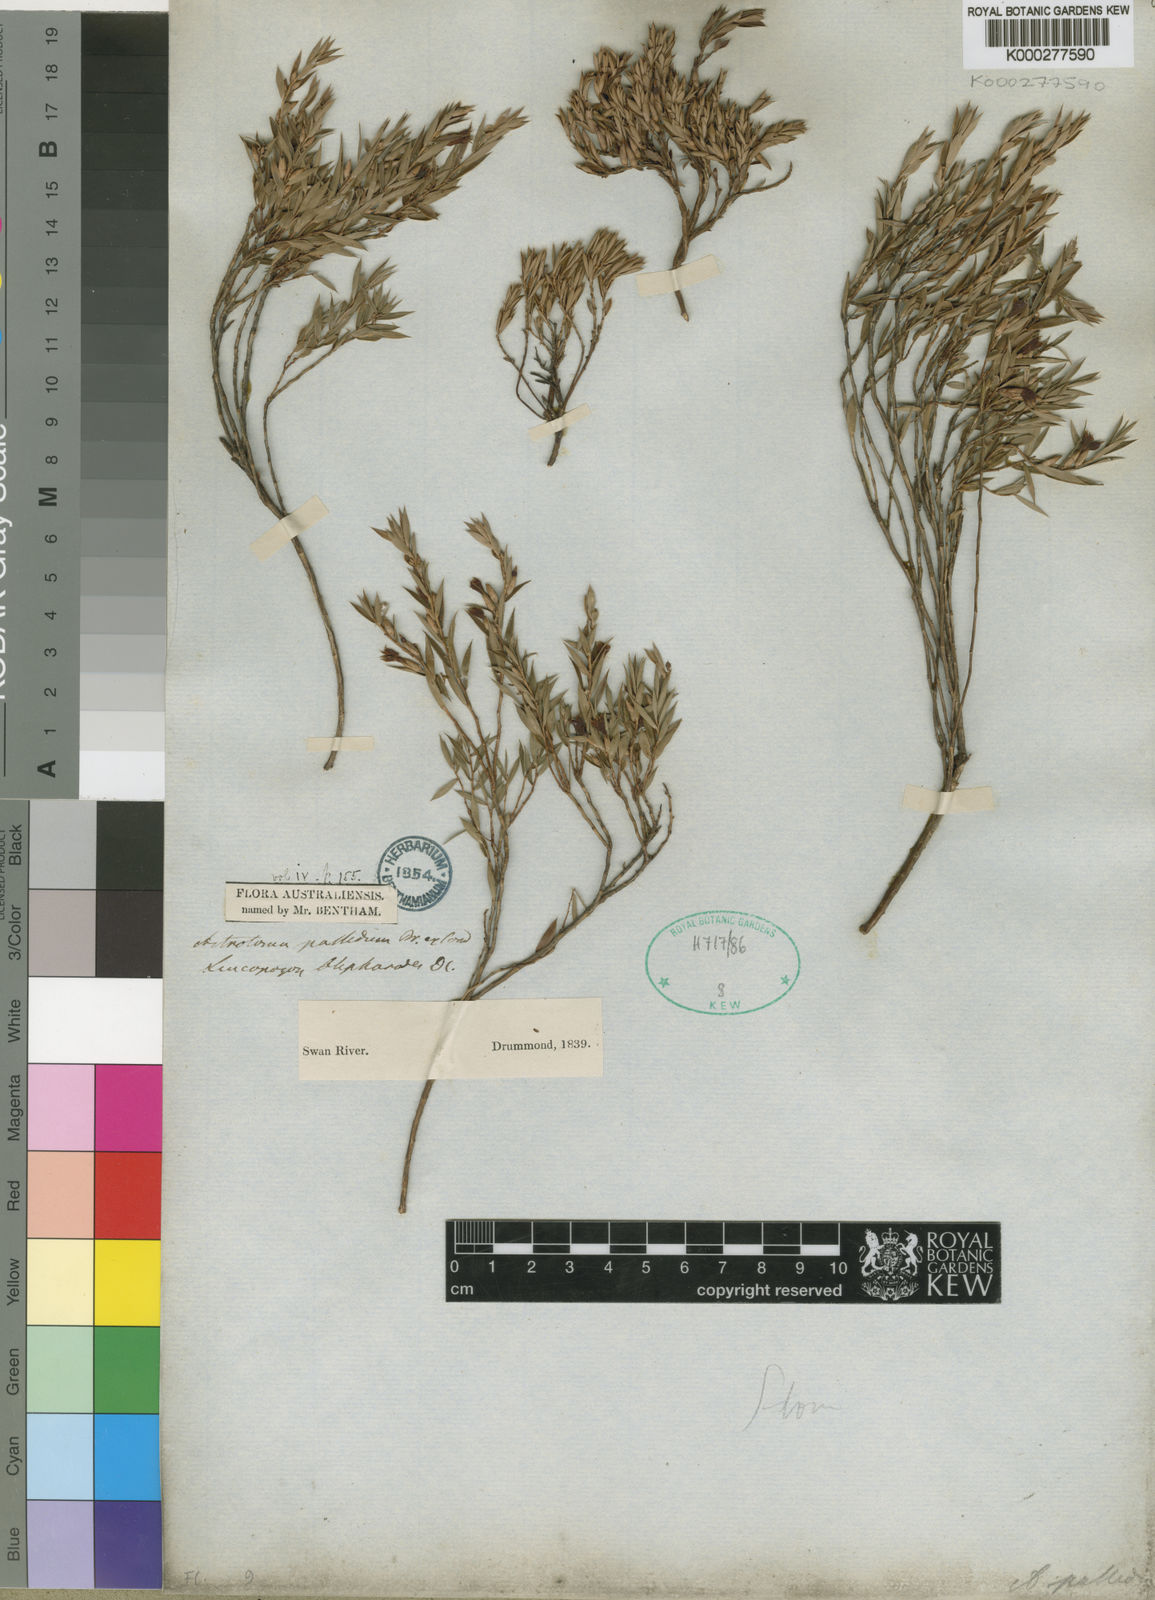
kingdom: Plantae
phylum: Tracheophyta
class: Magnoliopsida
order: Ericales
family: Ericaceae
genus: Styphelia
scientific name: Styphelia pallida
